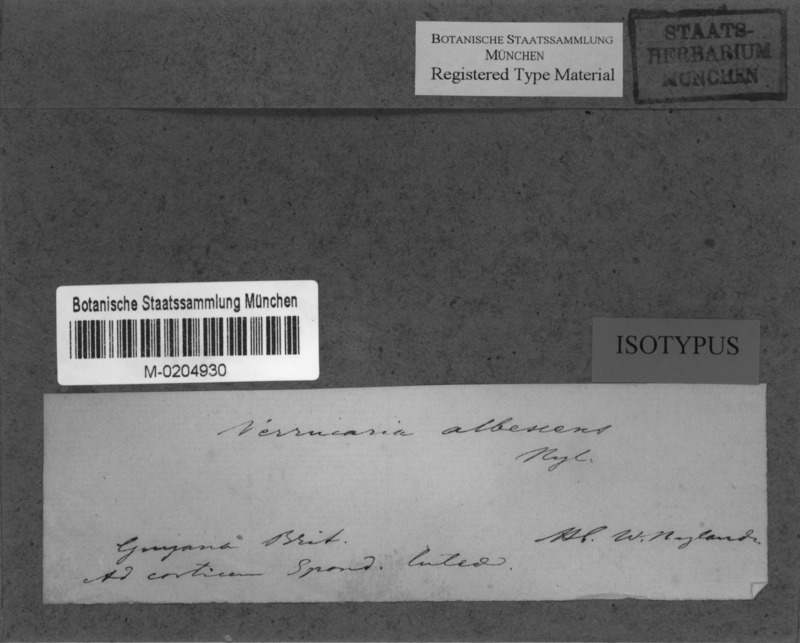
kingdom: Fungi
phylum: Ascomycota
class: Eurotiomycetes
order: Pyrenulales
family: Pyrenulaceae
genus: Anthracothecium
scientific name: Anthracothecium albescens
